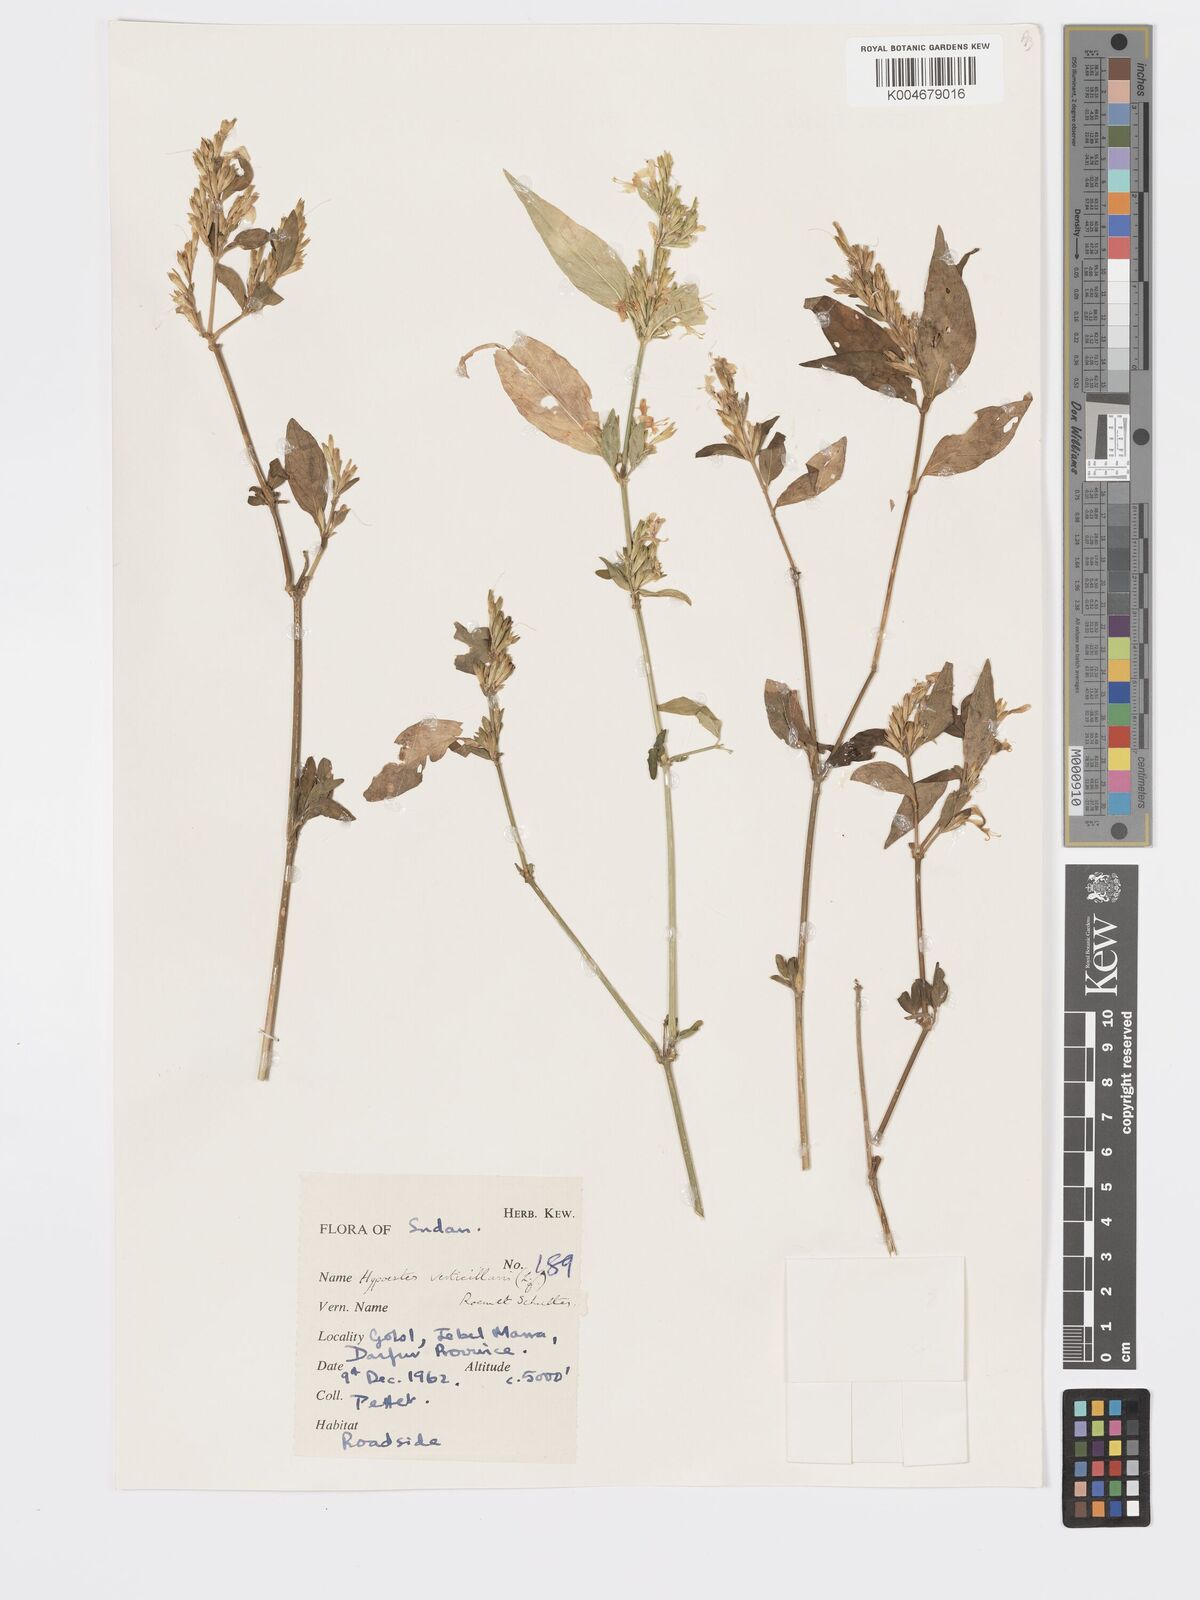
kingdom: Plantae
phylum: Tracheophyta
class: Magnoliopsida
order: Lamiales
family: Acanthaceae
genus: Hypoestes
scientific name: Hypoestes
